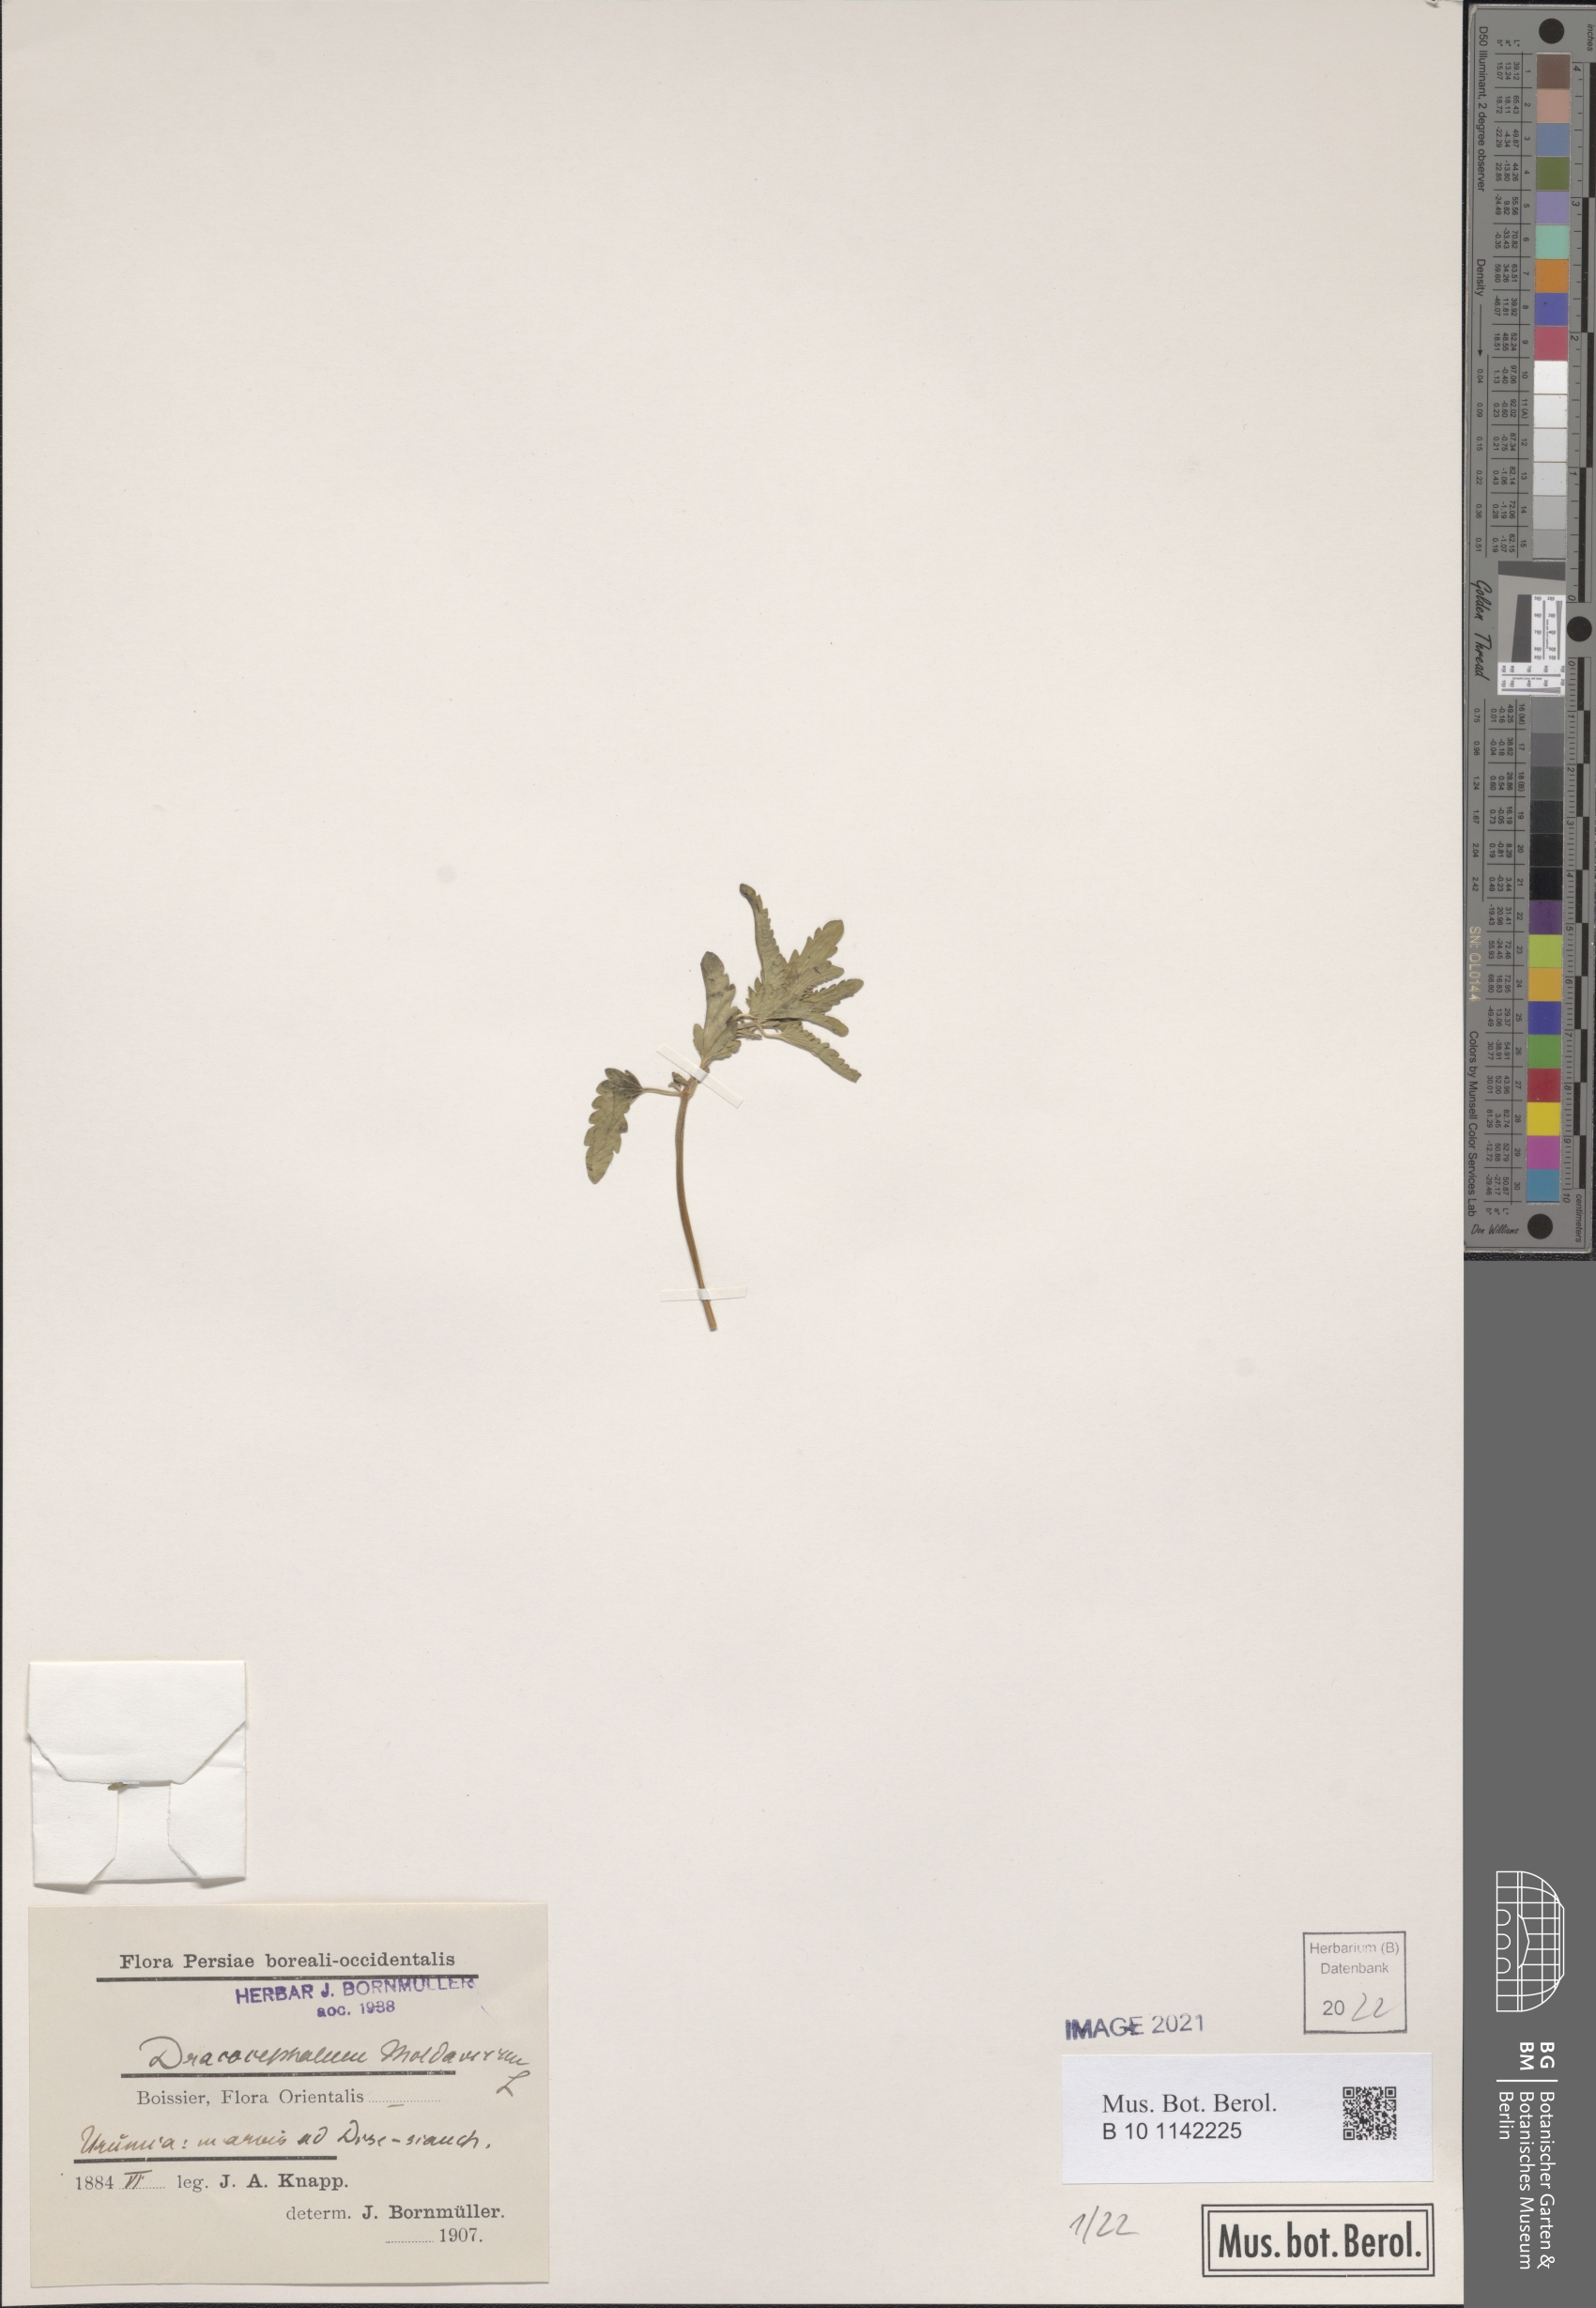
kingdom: Plantae
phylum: Tracheophyta
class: Magnoliopsida
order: Lamiales
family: Lamiaceae
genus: Dracocephalum
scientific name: Dracocephalum moldavica
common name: Moldavian dragonhead
